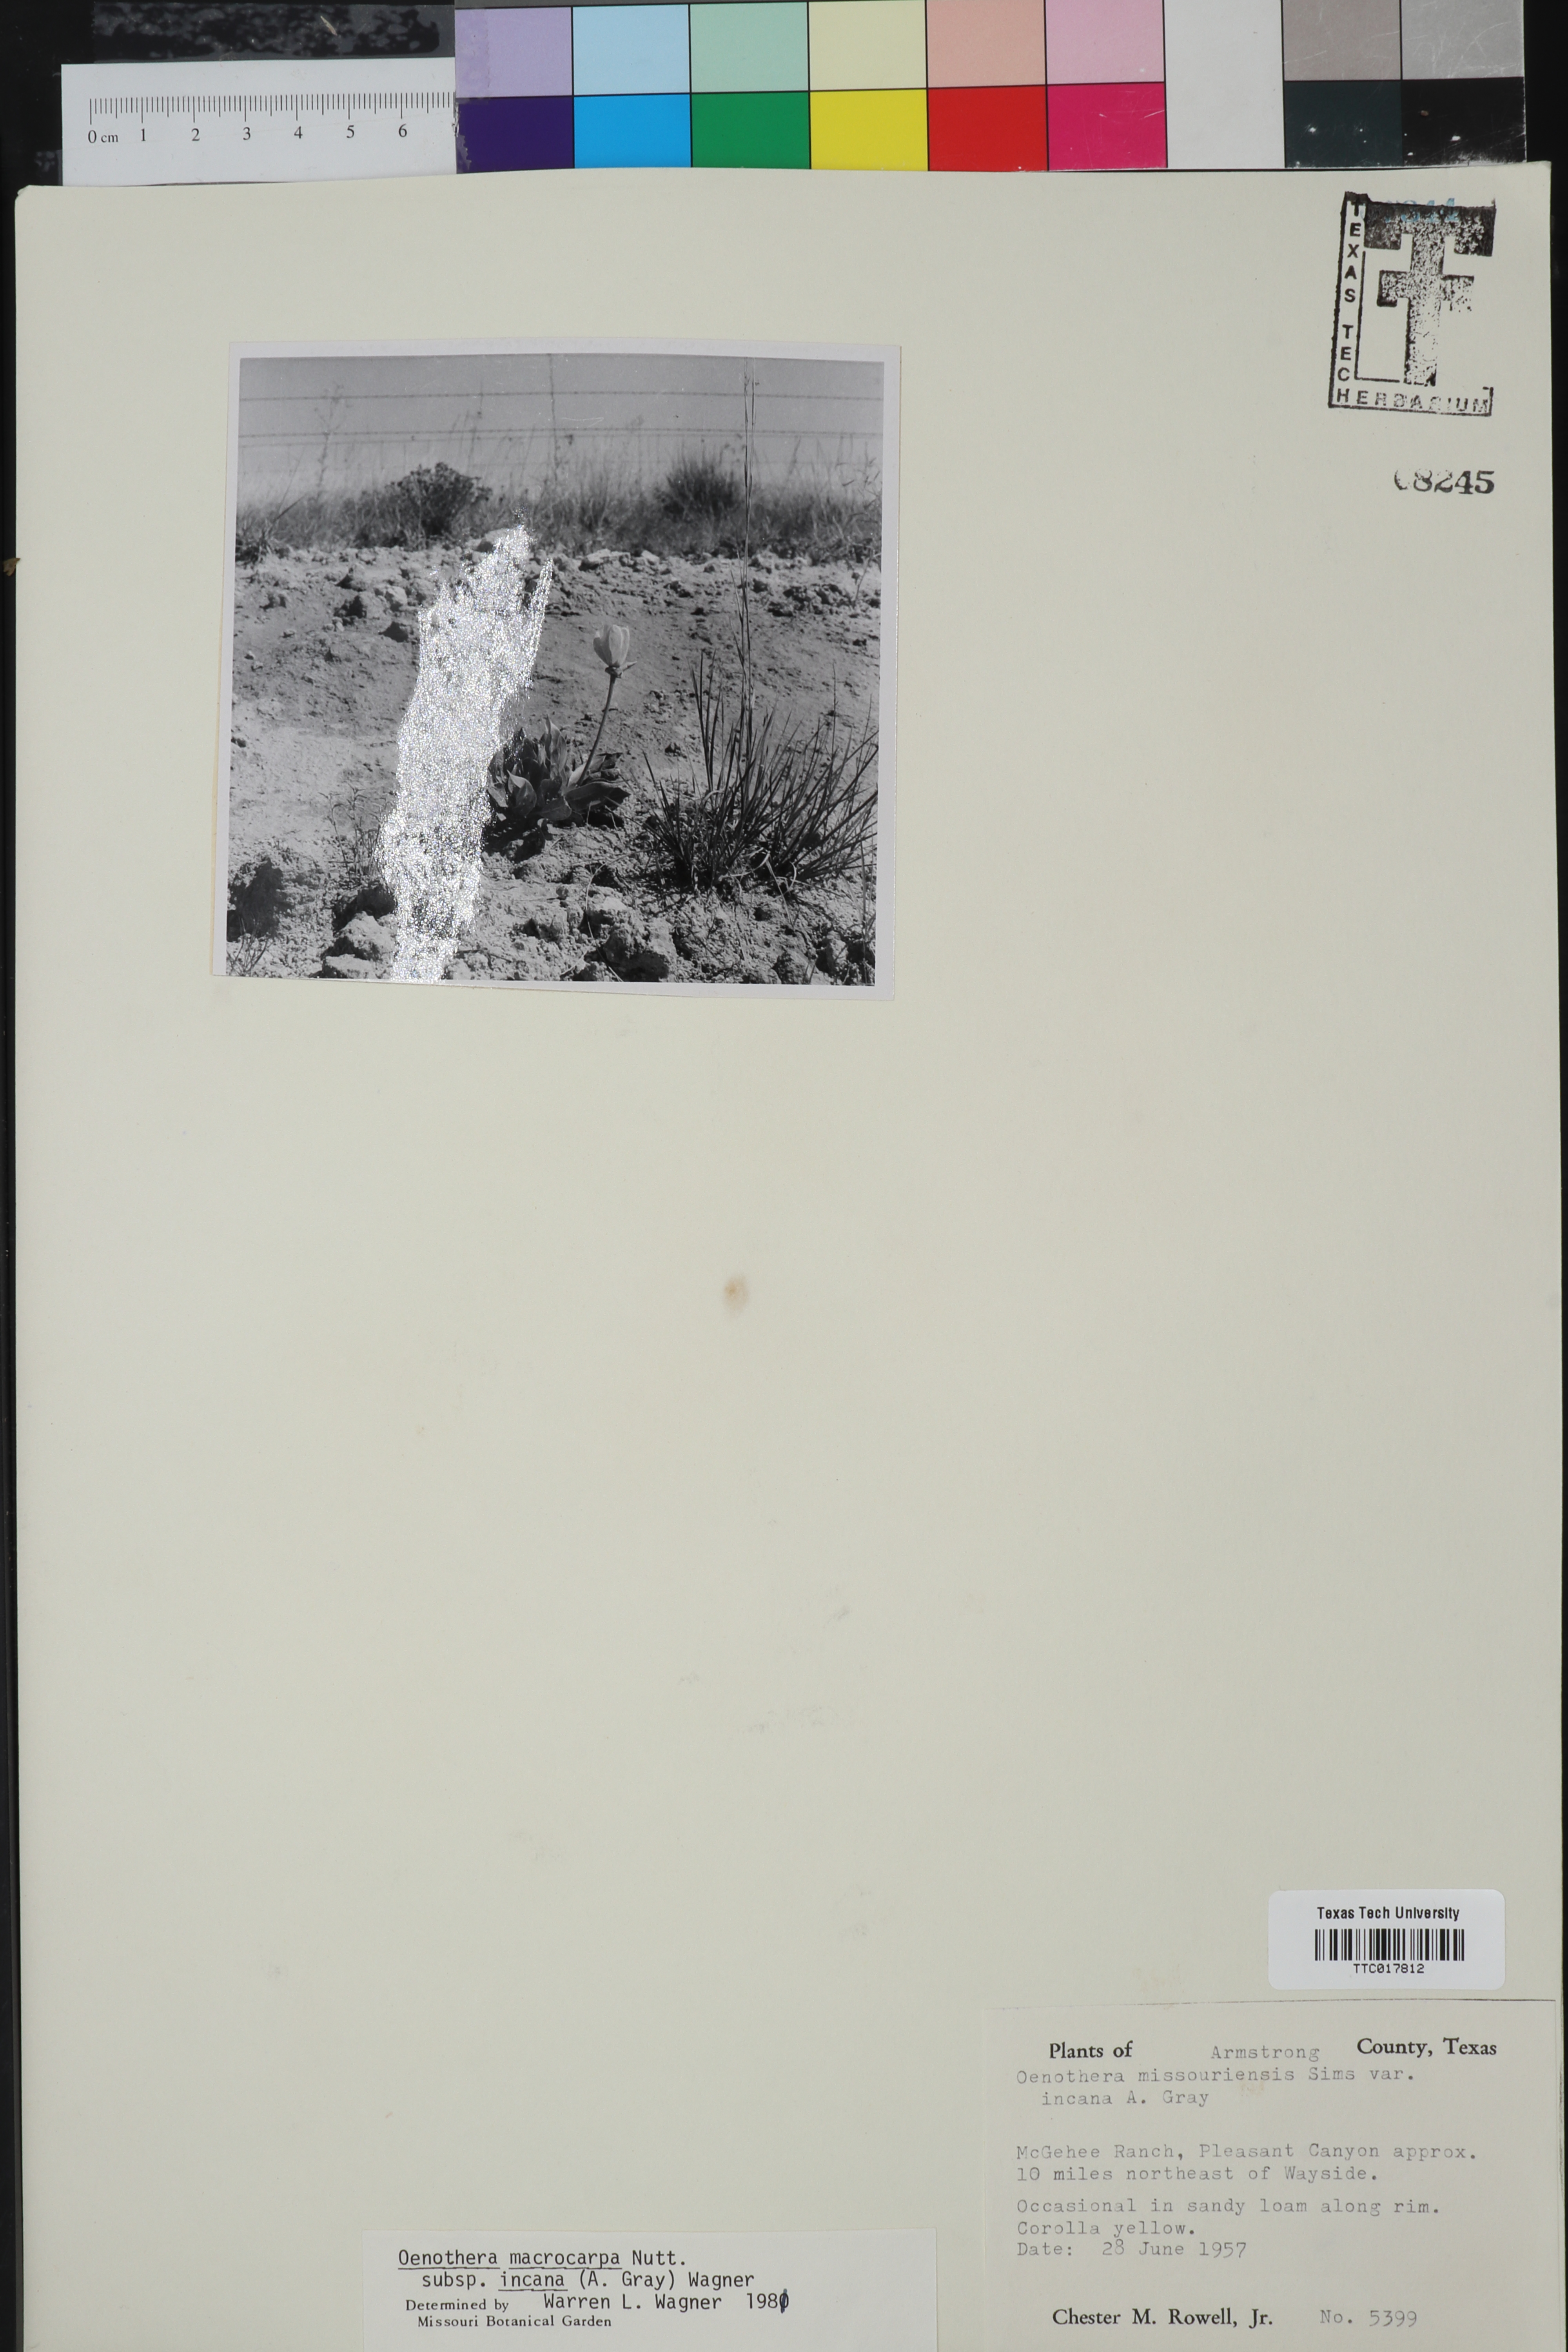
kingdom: Plantae
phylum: Tracheophyta
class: Magnoliopsida
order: Myrtales
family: Onagraceae
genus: Oenothera
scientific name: Oenothera macrocarpa
